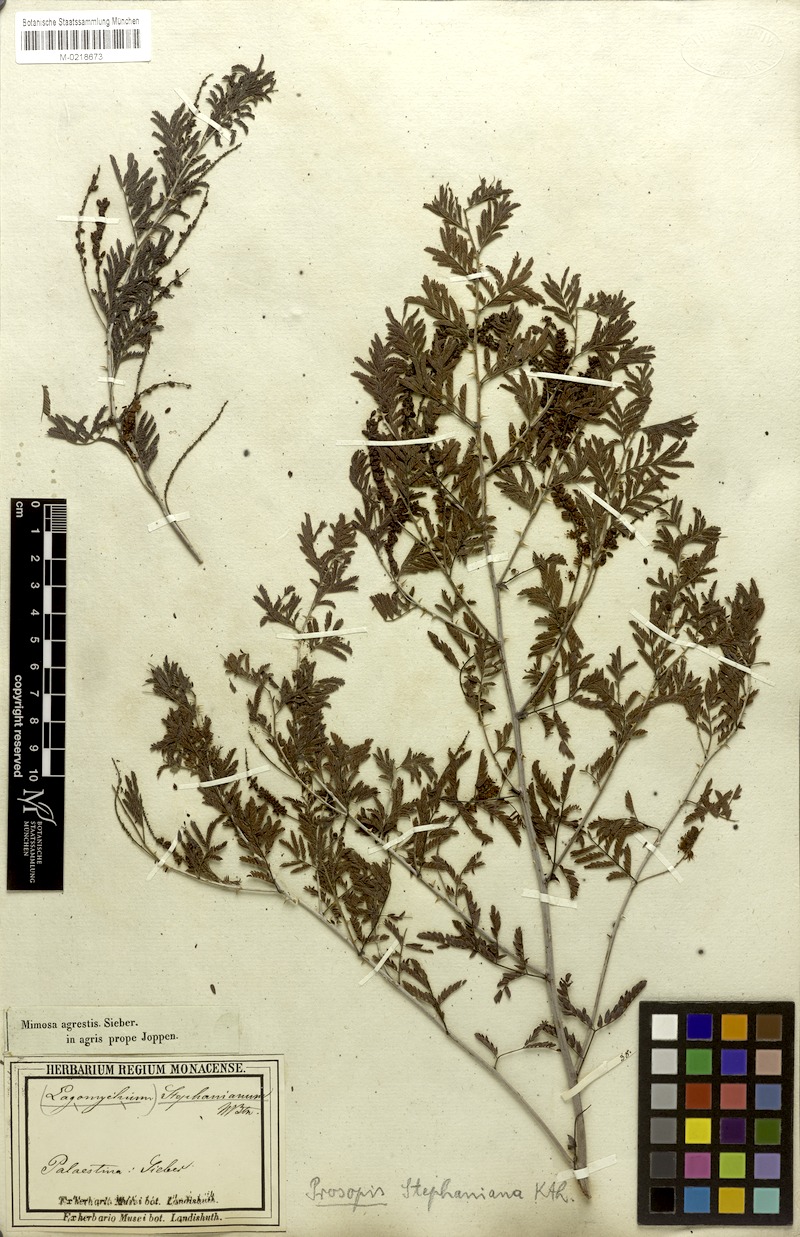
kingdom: Plantae
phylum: Tracheophyta
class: Magnoliopsida
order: Fabales
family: Fabaceae
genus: Prosopis
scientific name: Prosopis farcta
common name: Syrian mesquite
